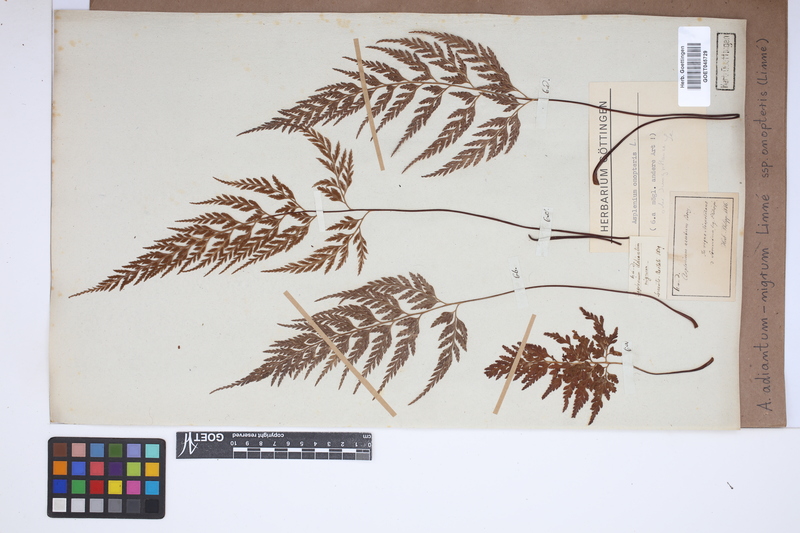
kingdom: Plantae
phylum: Tracheophyta
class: Polypodiopsida
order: Polypodiales
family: Aspleniaceae
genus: Asplenium
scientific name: Asplenium onopteris
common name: Irish spleenwort
